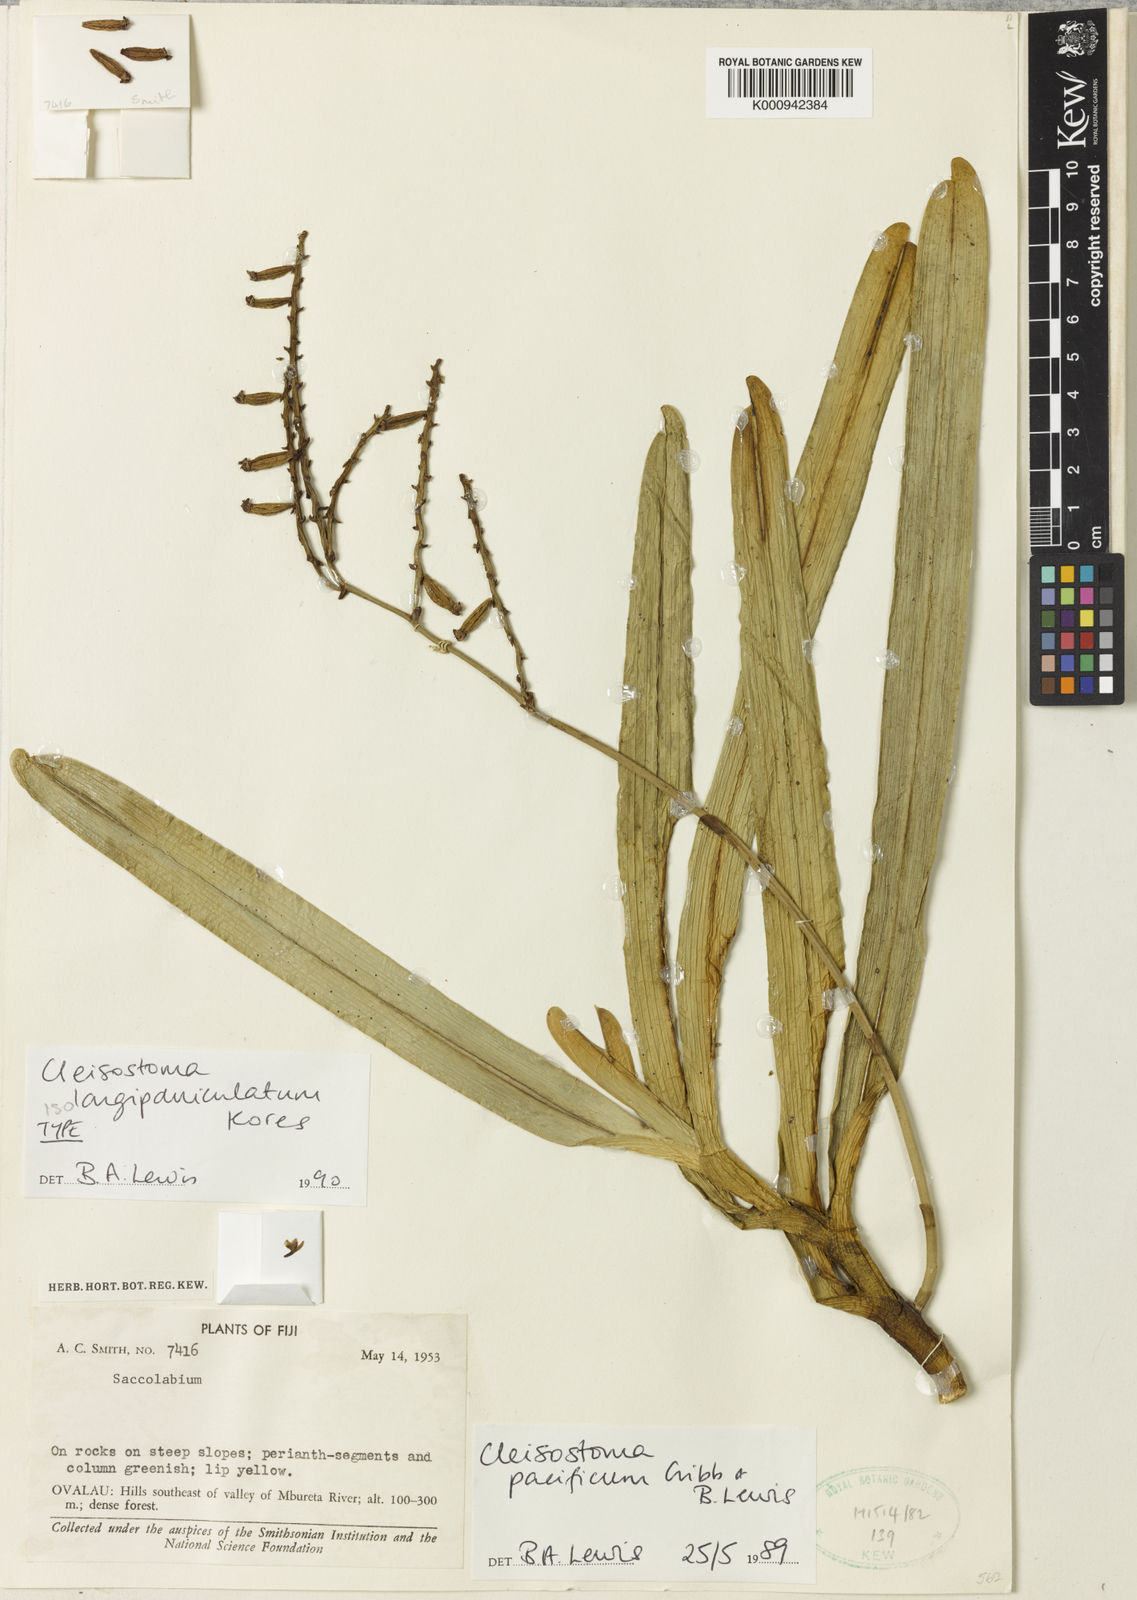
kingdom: Plantae
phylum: Tracheophyta
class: Liliopsida
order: Asparagales
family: Orchidaceae
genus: Cleisostoma
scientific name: Cleisostoma longipaniculatum
